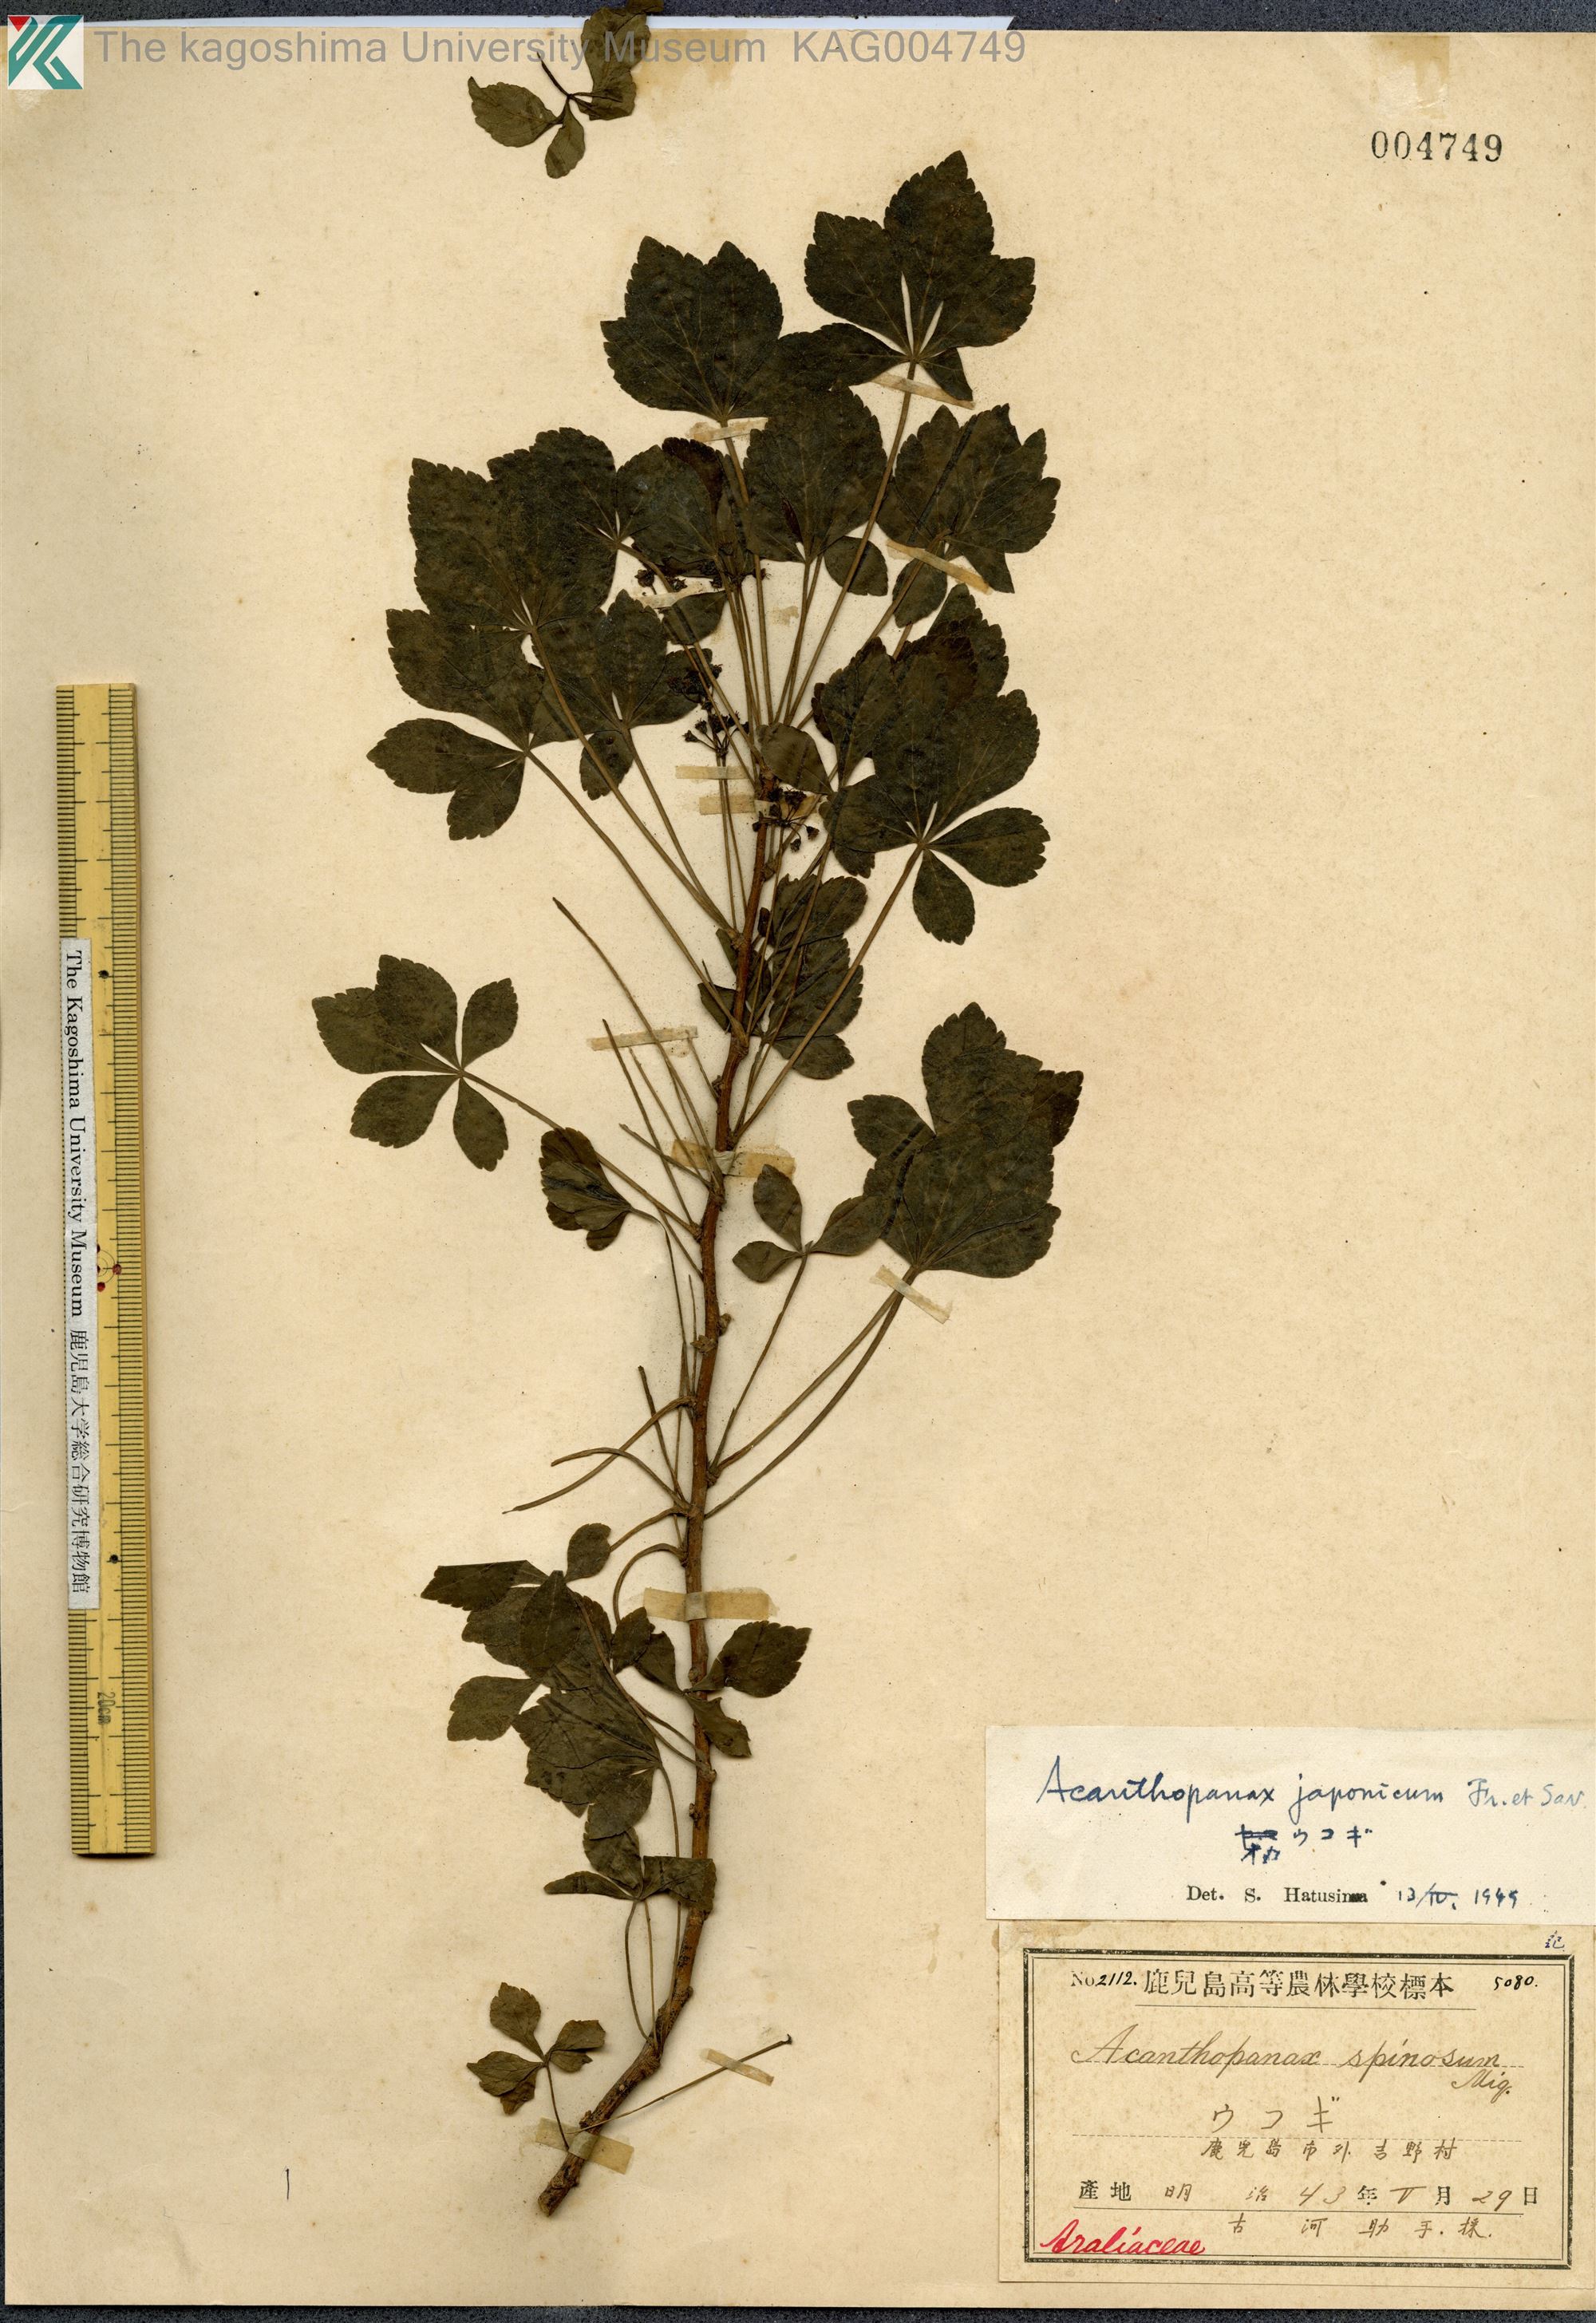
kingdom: Plantae
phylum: Tracheophyta
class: Magnoliopsida
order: Apiales
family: Araliaceae
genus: Eleutherococcus
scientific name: Eleutherococcus japonicus
